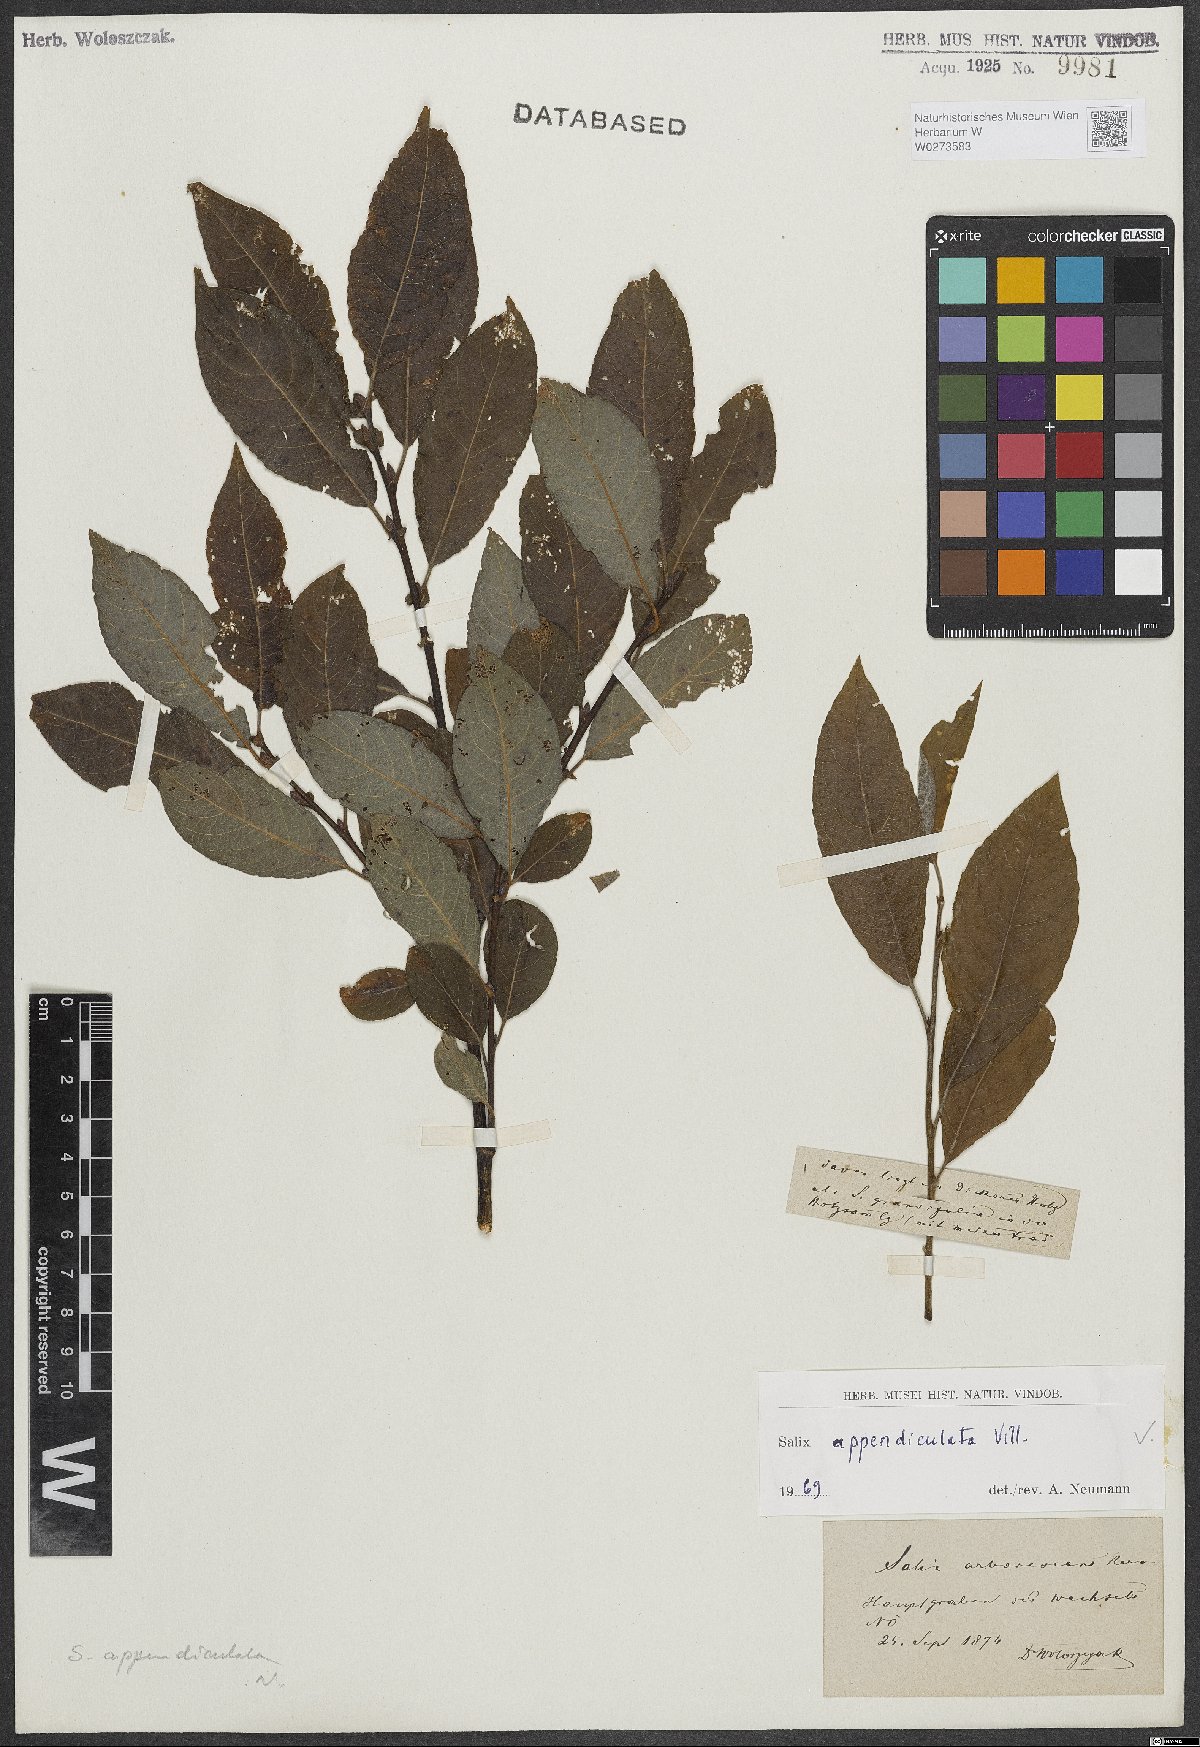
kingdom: Plantae
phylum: Tracheophyta
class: Magnoliopsida
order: Malpighiales
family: Salicaceae
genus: Salix
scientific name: Salix appendiculata
